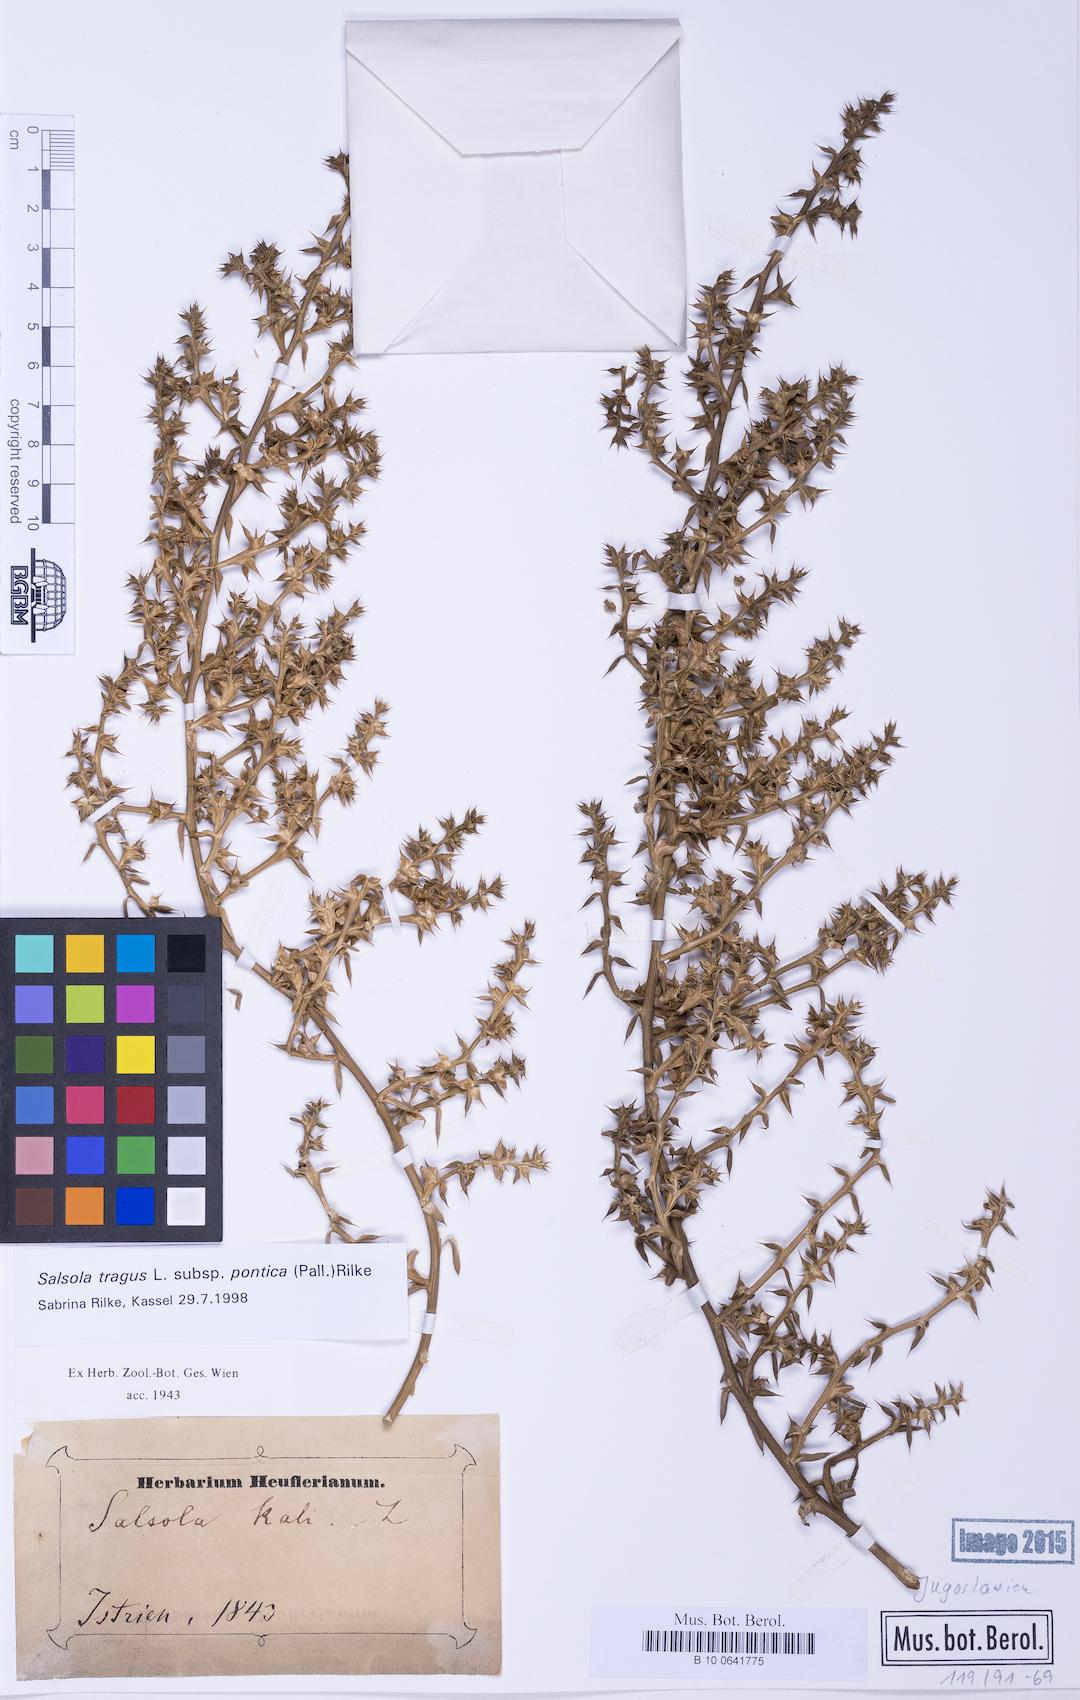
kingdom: Plantae
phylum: Tracheophyta
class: Magnoliopsida
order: Caryophyllales
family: Amaranthaceae
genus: Salsola
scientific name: Salsola squarrosa
